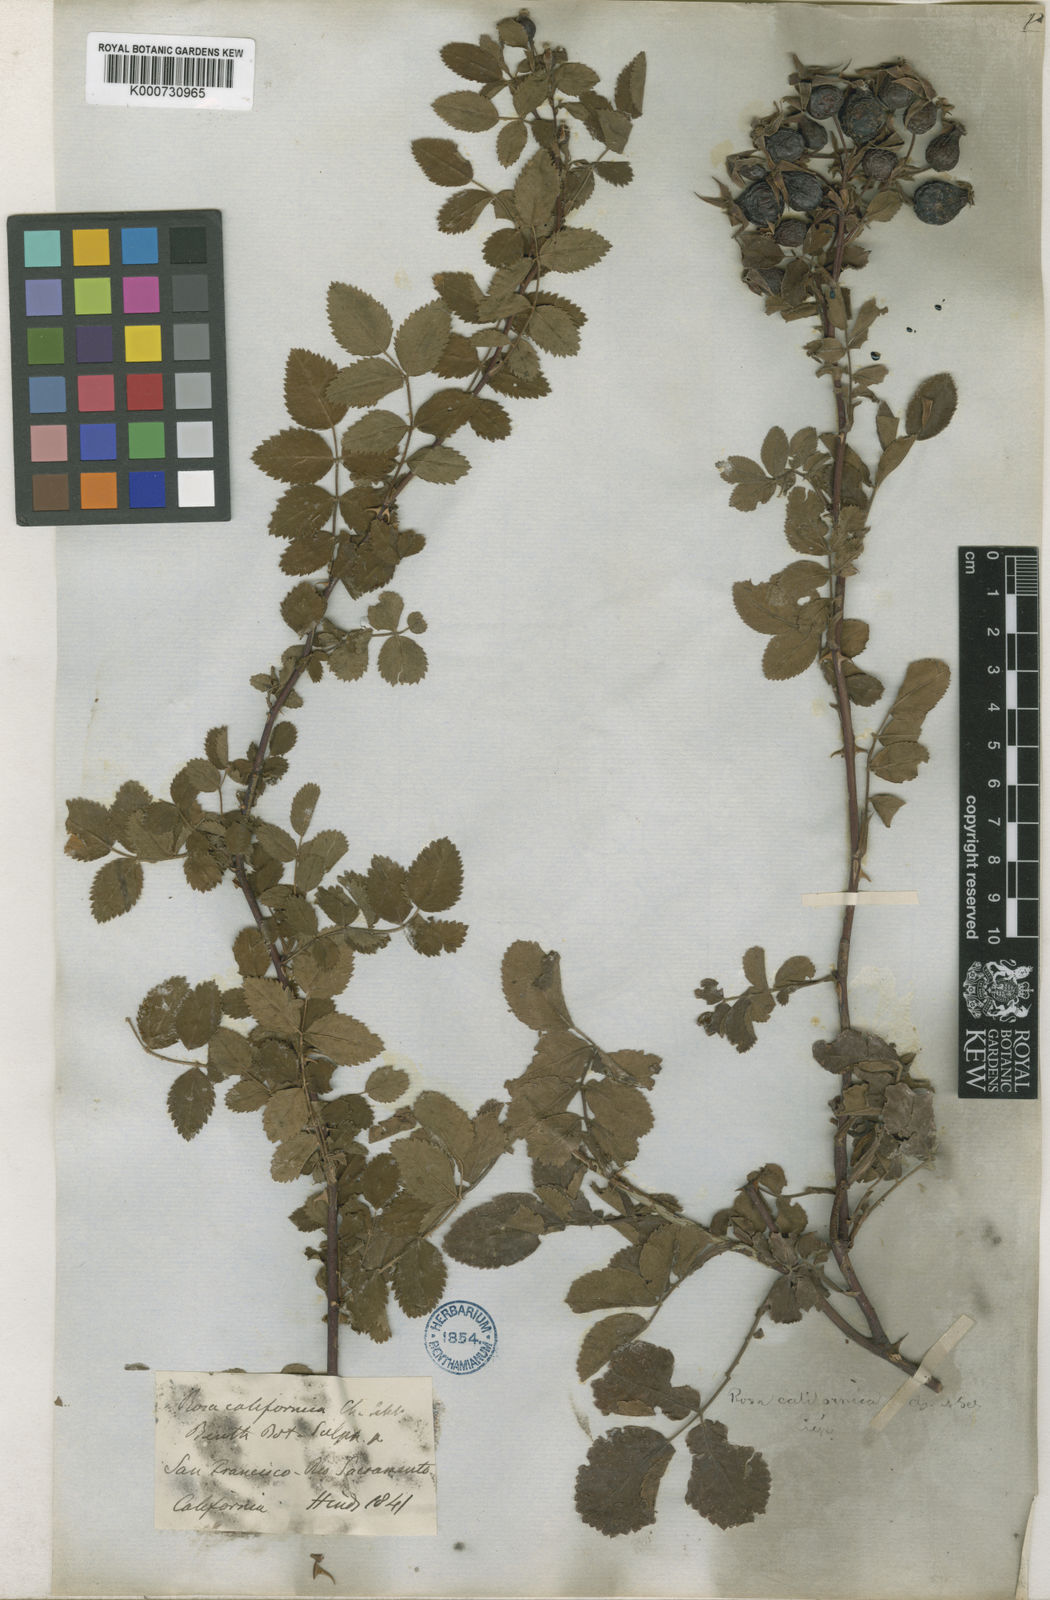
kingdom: Plantae
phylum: Tracheophyta
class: Magnoliopsida
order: Rosales
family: Rosaceae
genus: Rosa
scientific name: Rosa californica
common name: California rose
